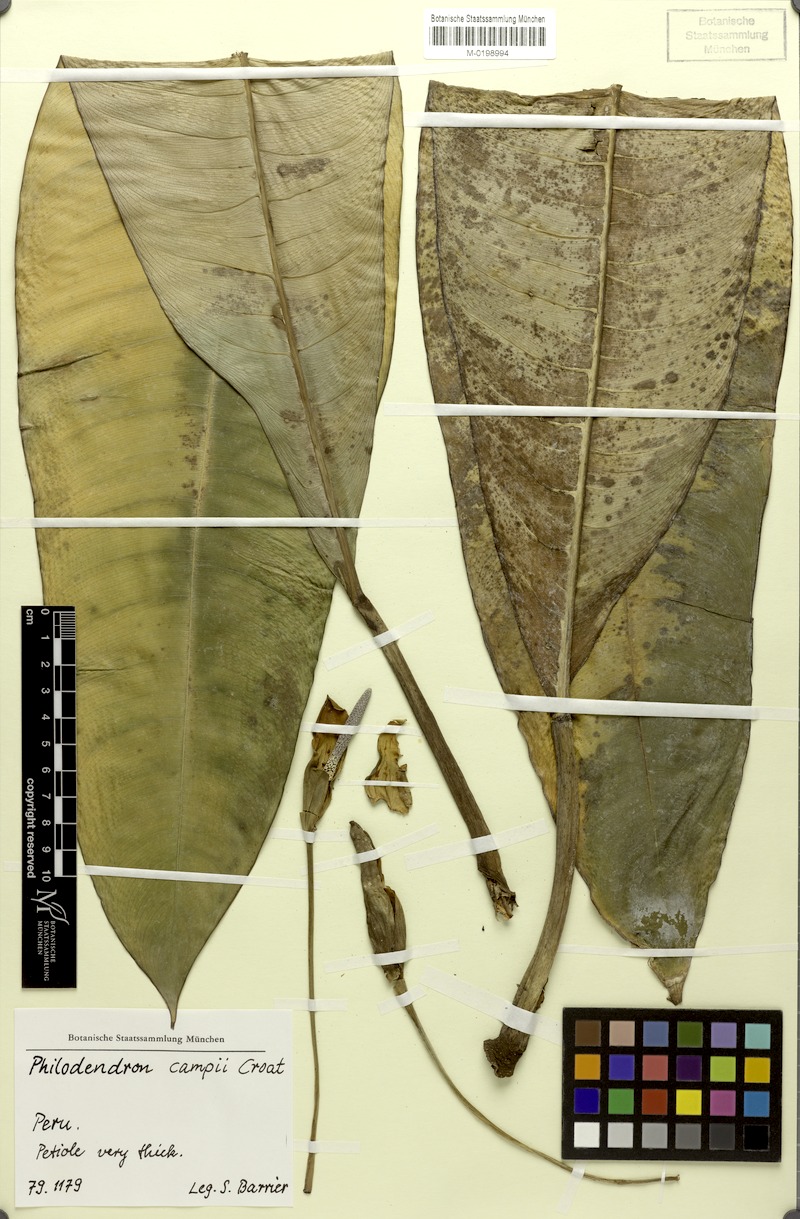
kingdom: Plantae
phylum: Tracheophyta
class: Liliopsida
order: Alismatales
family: Araceae
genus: Philodendron
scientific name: Philodendron campii
